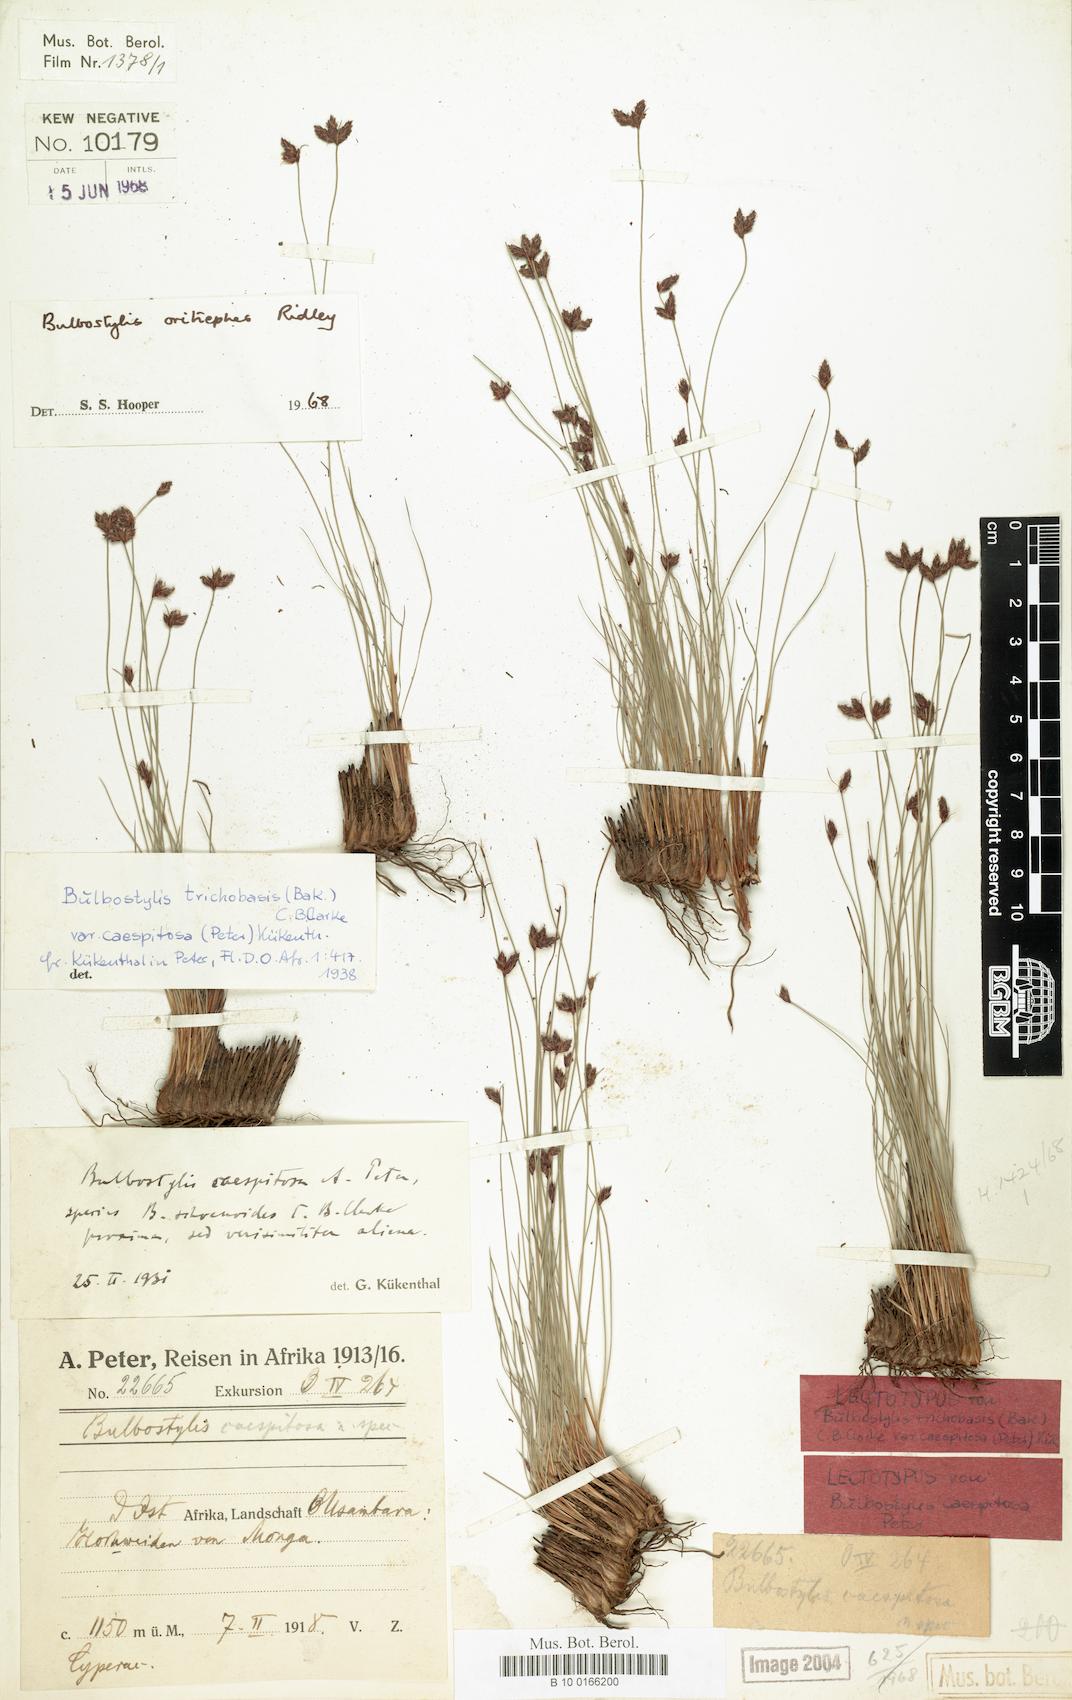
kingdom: Plantae
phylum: Tracheophyta
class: Liliopsida
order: Poales
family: Cyperaceae
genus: Bulbostylis
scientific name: Bulbostylis oritrephes
